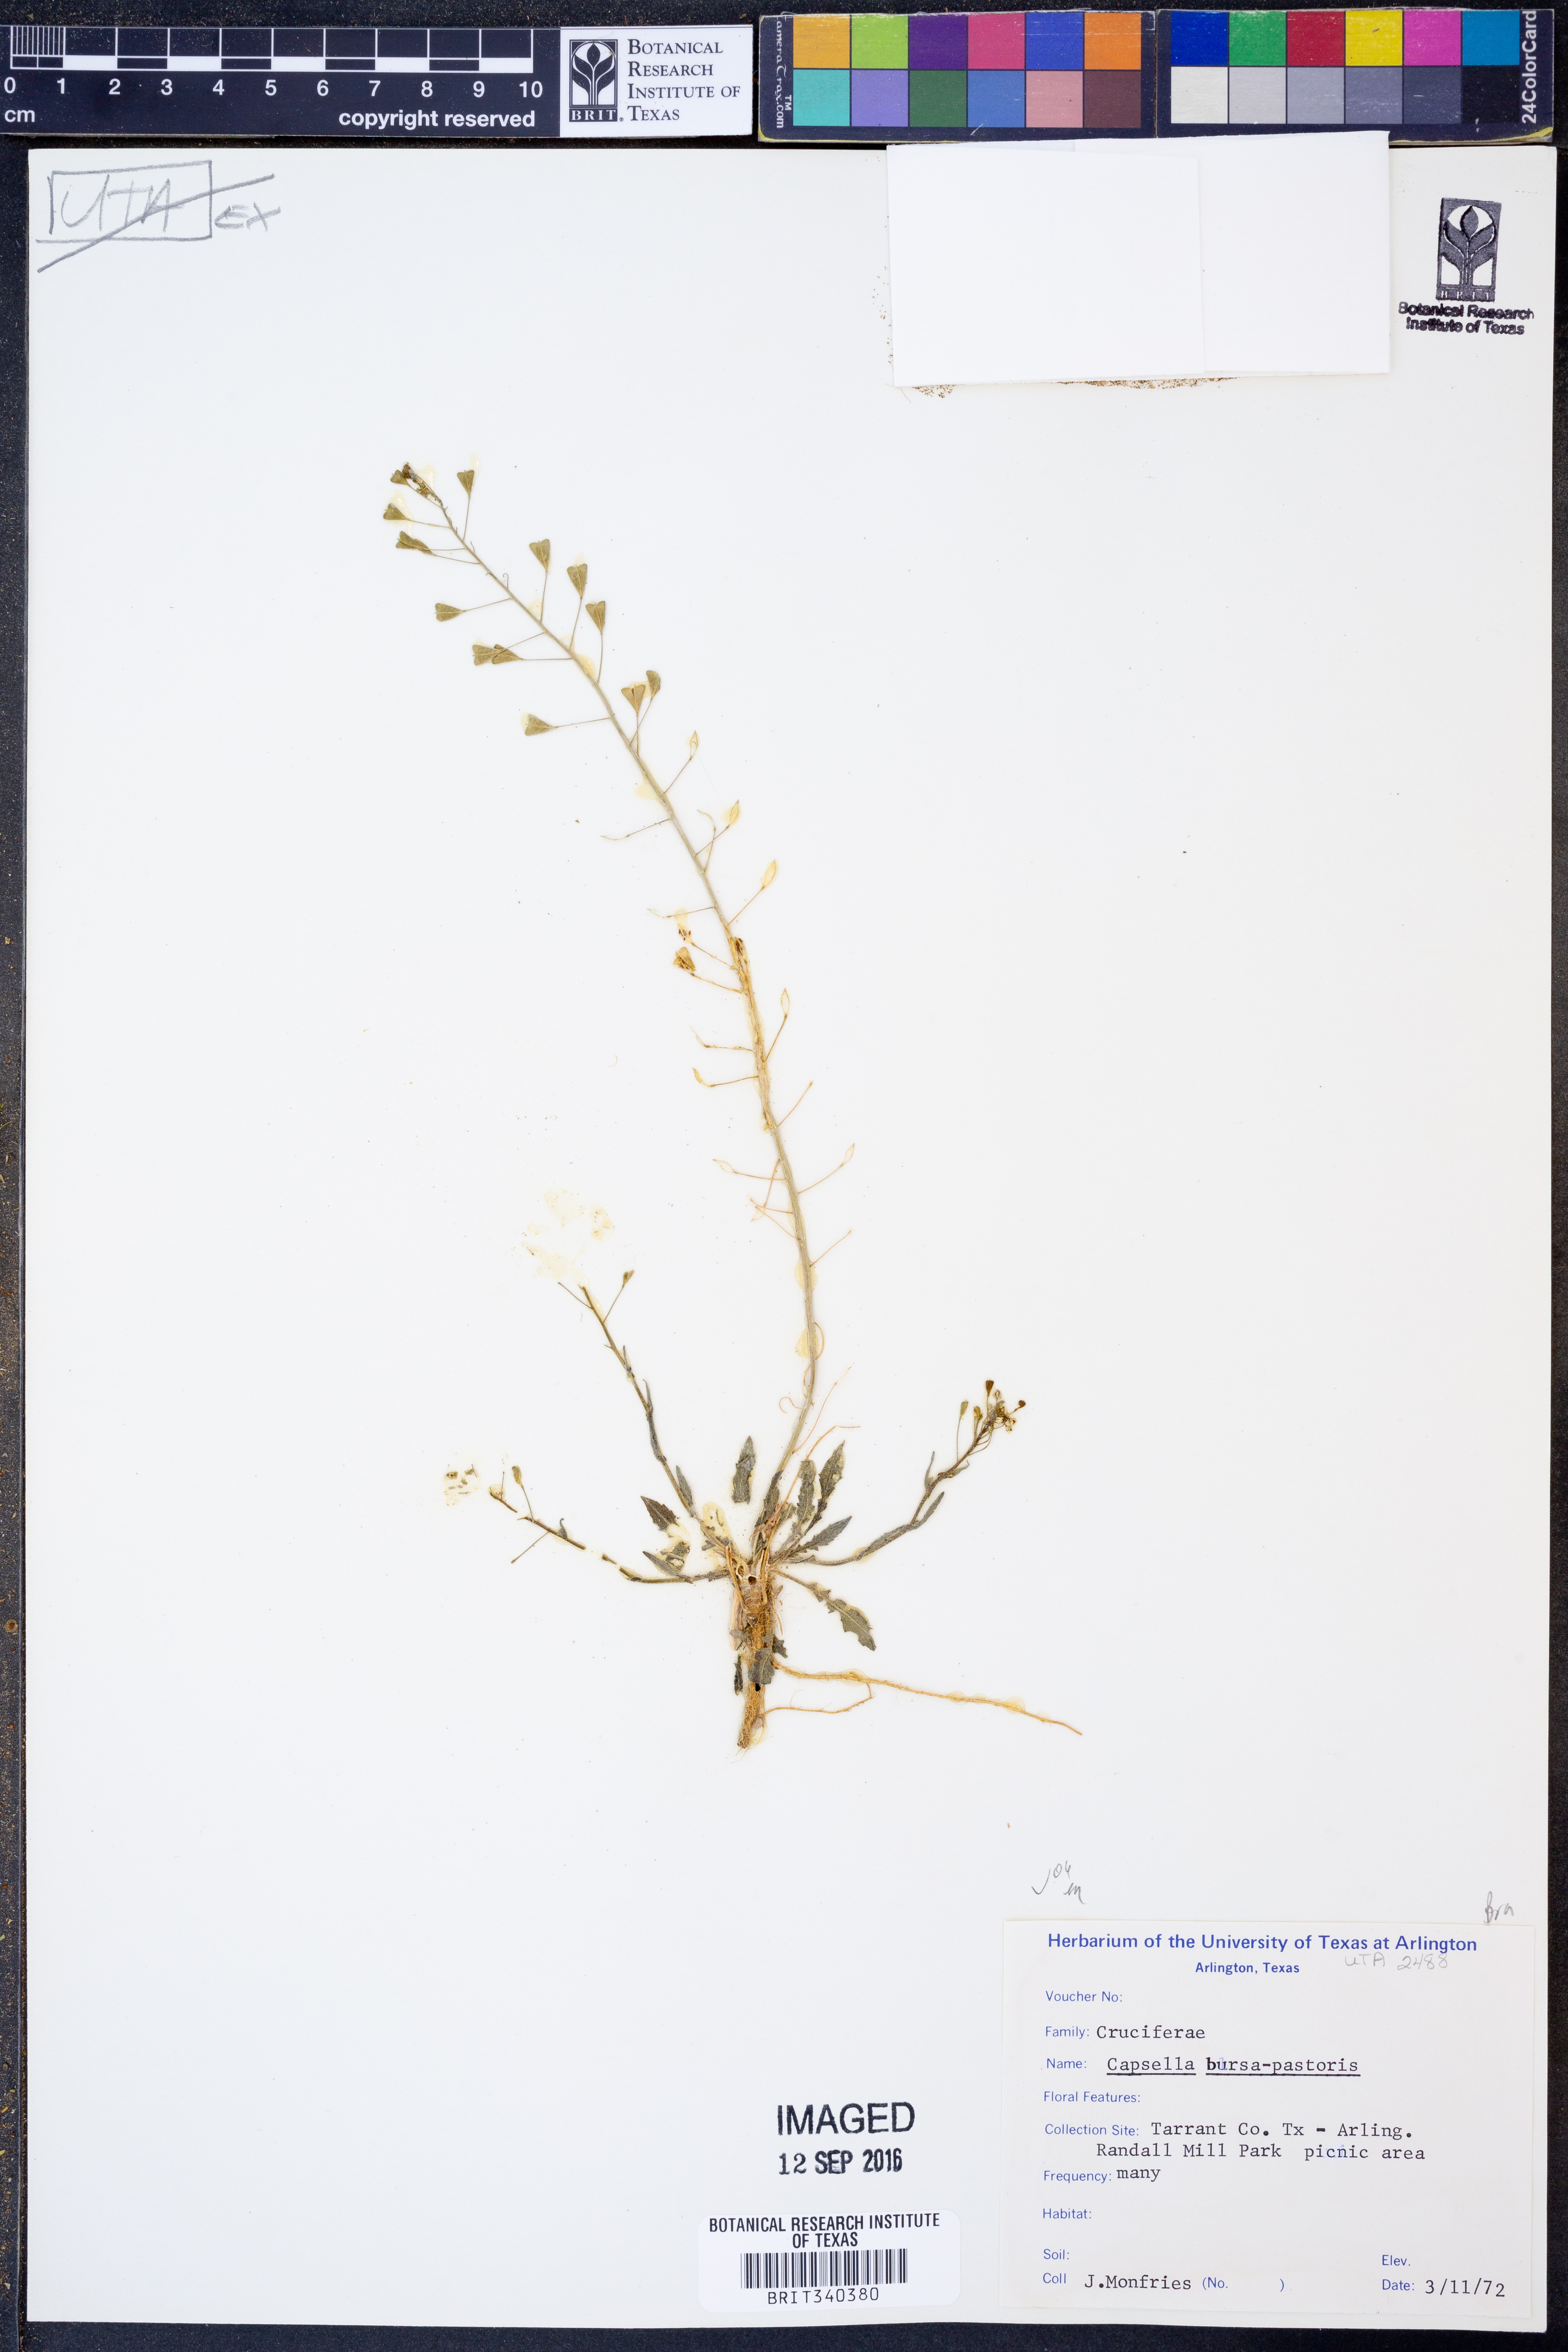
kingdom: Plantae
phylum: Tracheophyta
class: Magnoliopsida
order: Brassicales
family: Brassicaceae
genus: Capsella
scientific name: Capsella bursa-pastoris
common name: Shepherd's purse
